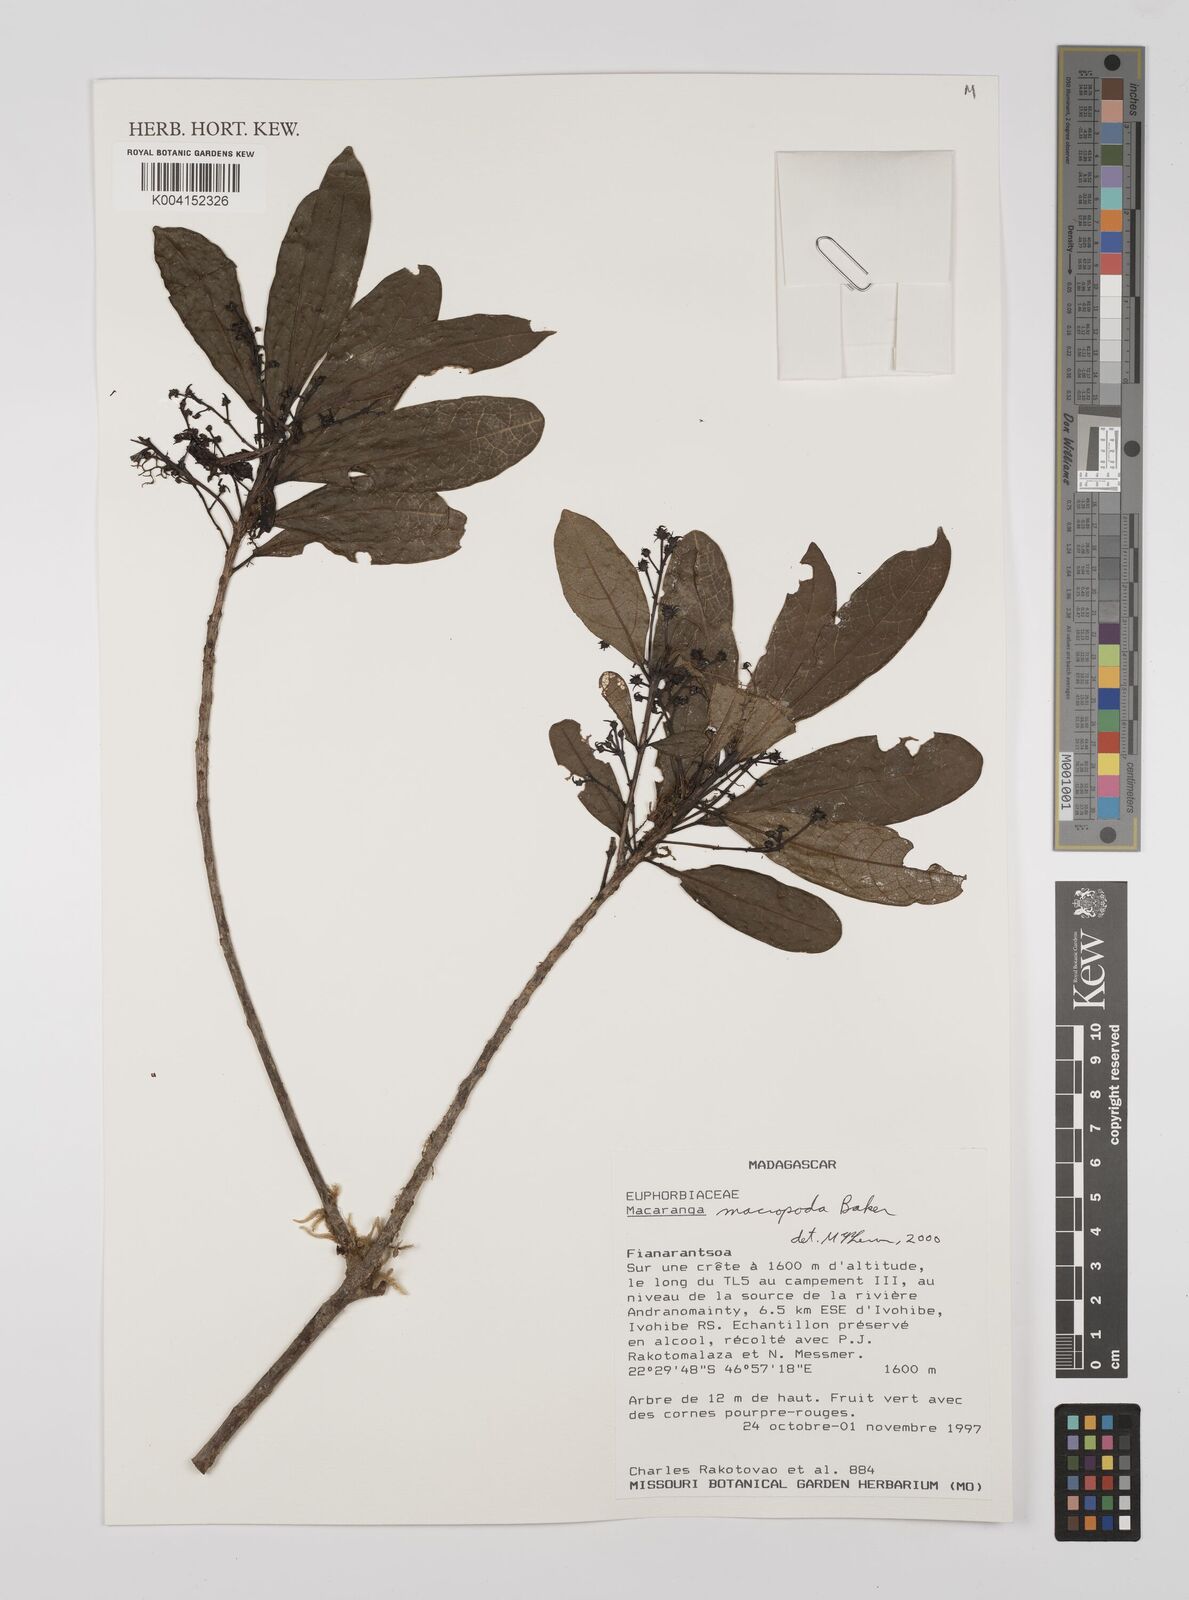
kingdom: Plantae
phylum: Tracheophyta
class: Magnoliopsida
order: Malpighiales
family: Euphorbiaceae
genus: Macaranga
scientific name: Macaranga macropoda
